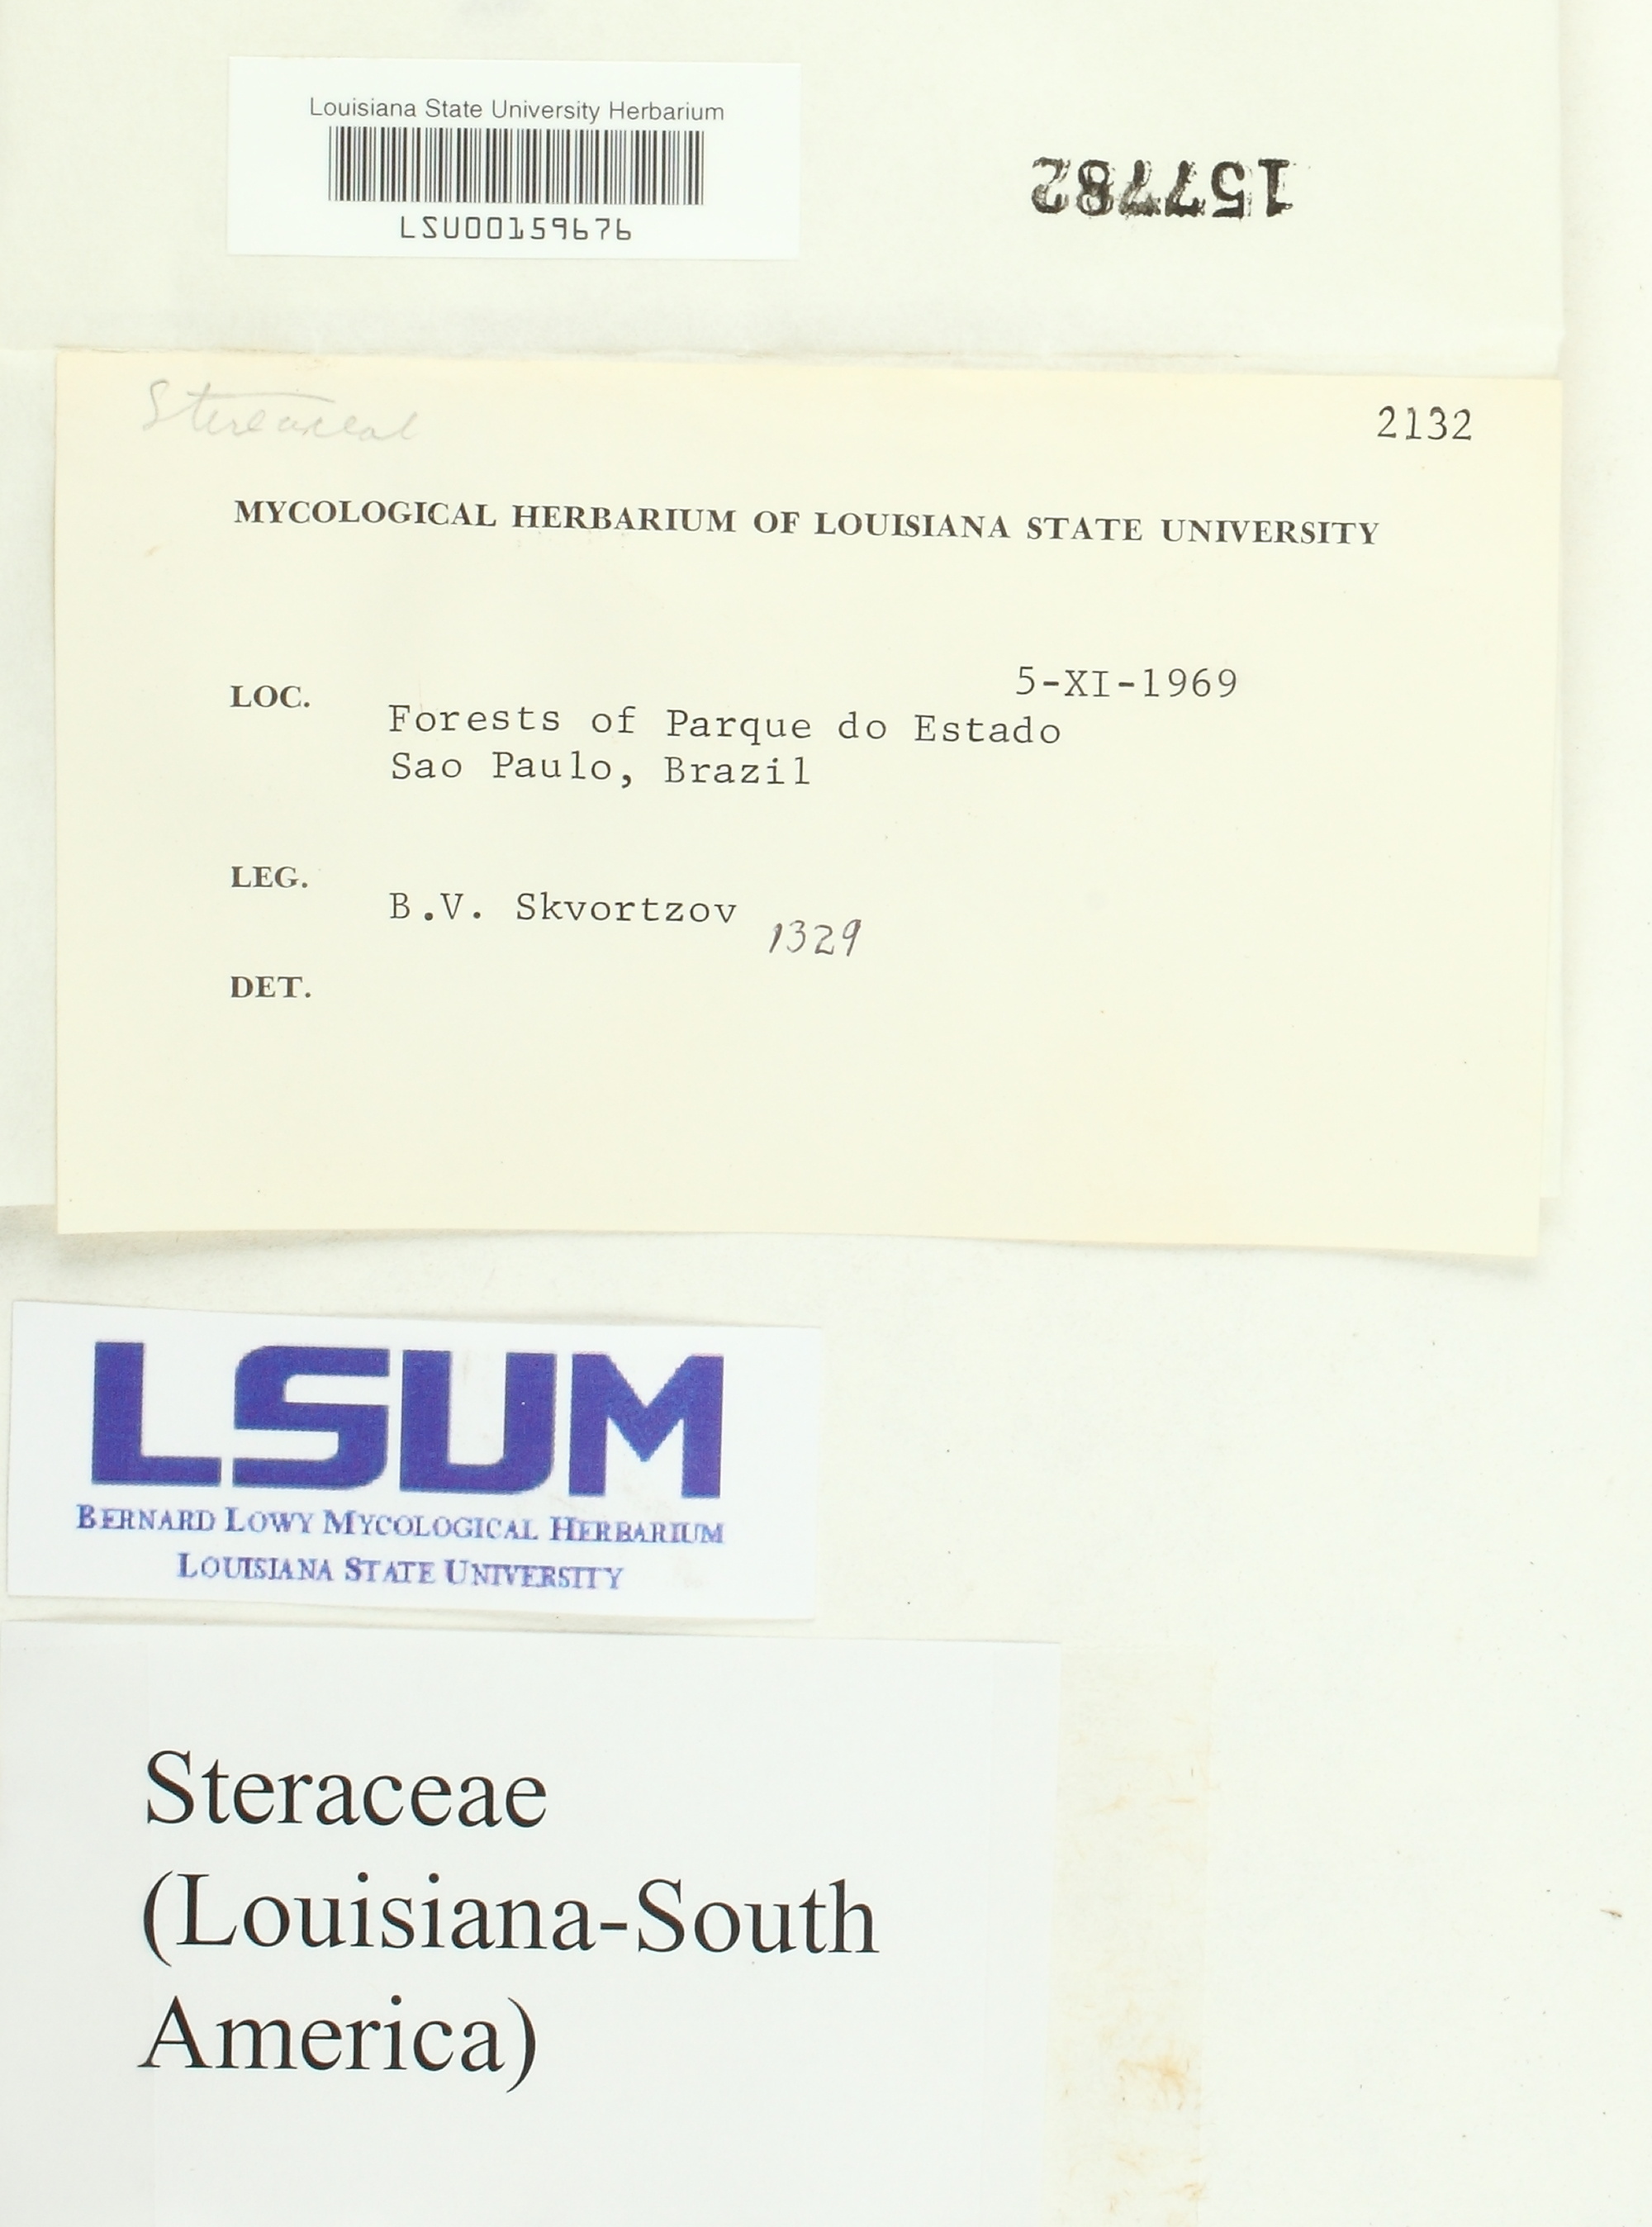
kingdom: Fungi
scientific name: Fungi
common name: Fungi
